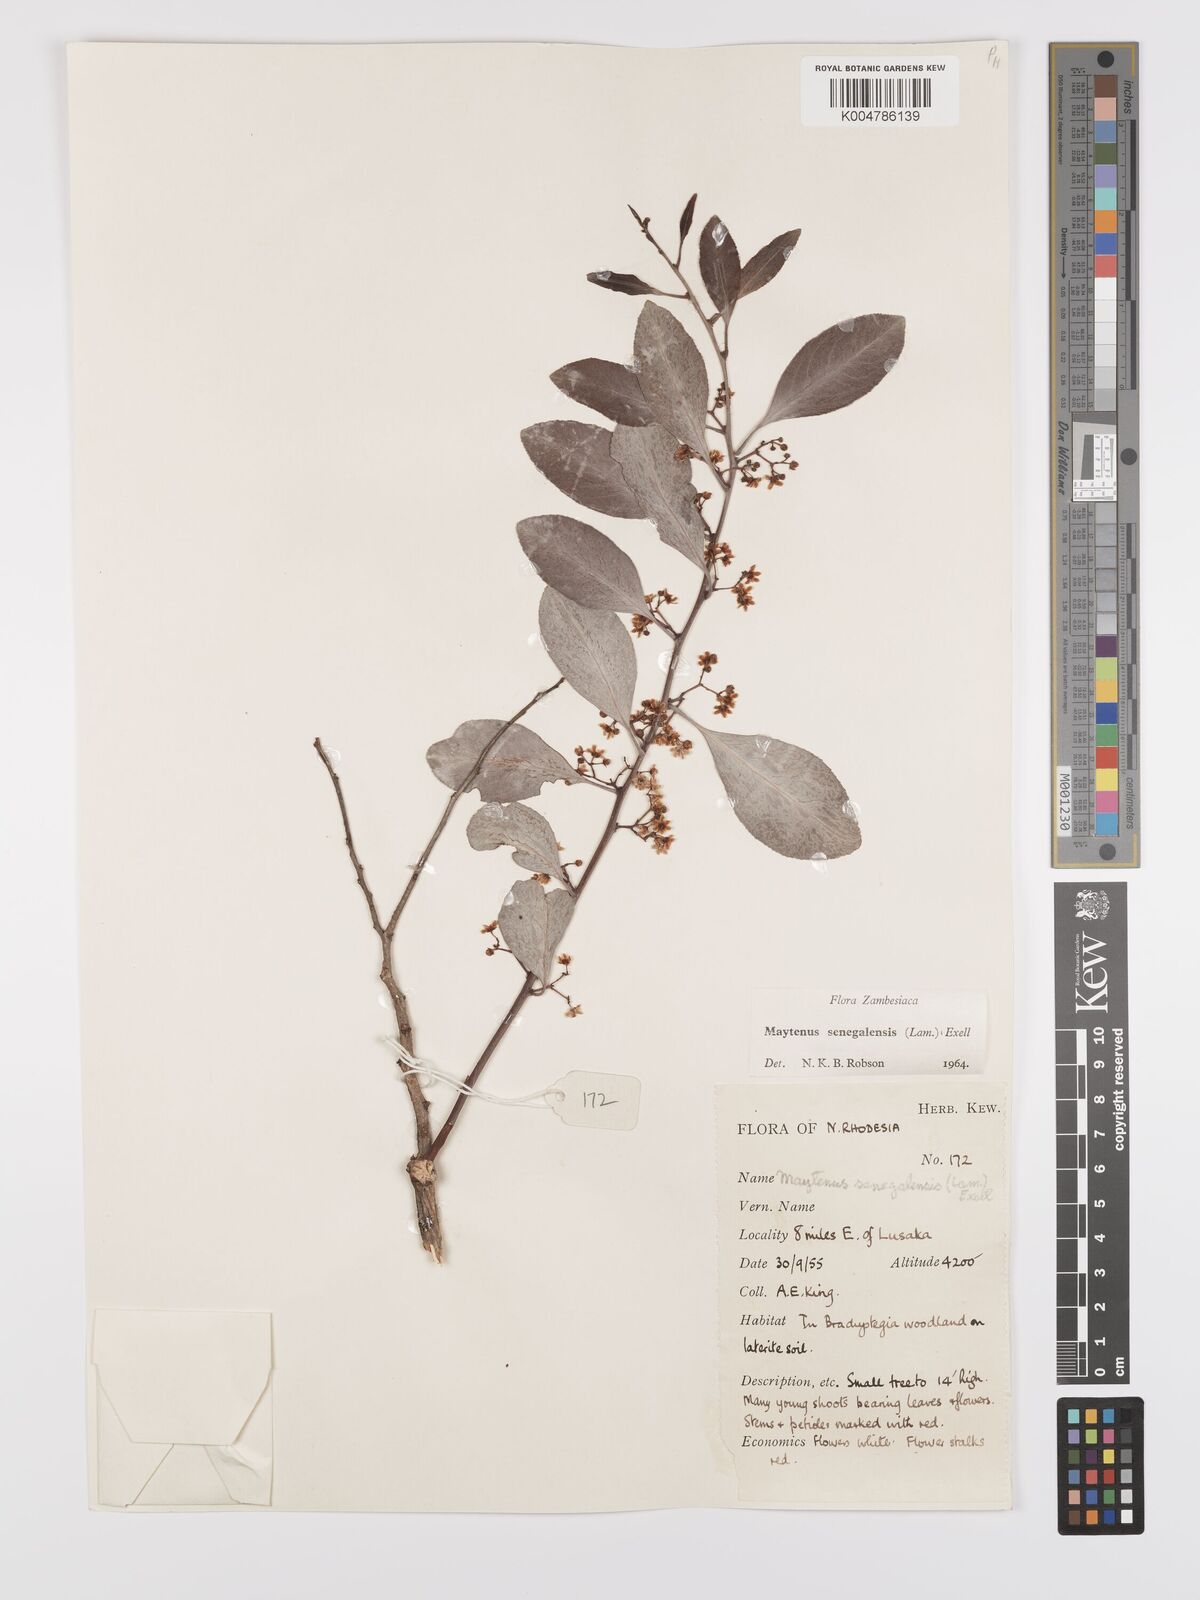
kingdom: Plantae
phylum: Tracheophyta
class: Magnoliopsida
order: Celastrales
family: Celastraceae
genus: Gymnosporia
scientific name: Gymnosporia senegalensis
